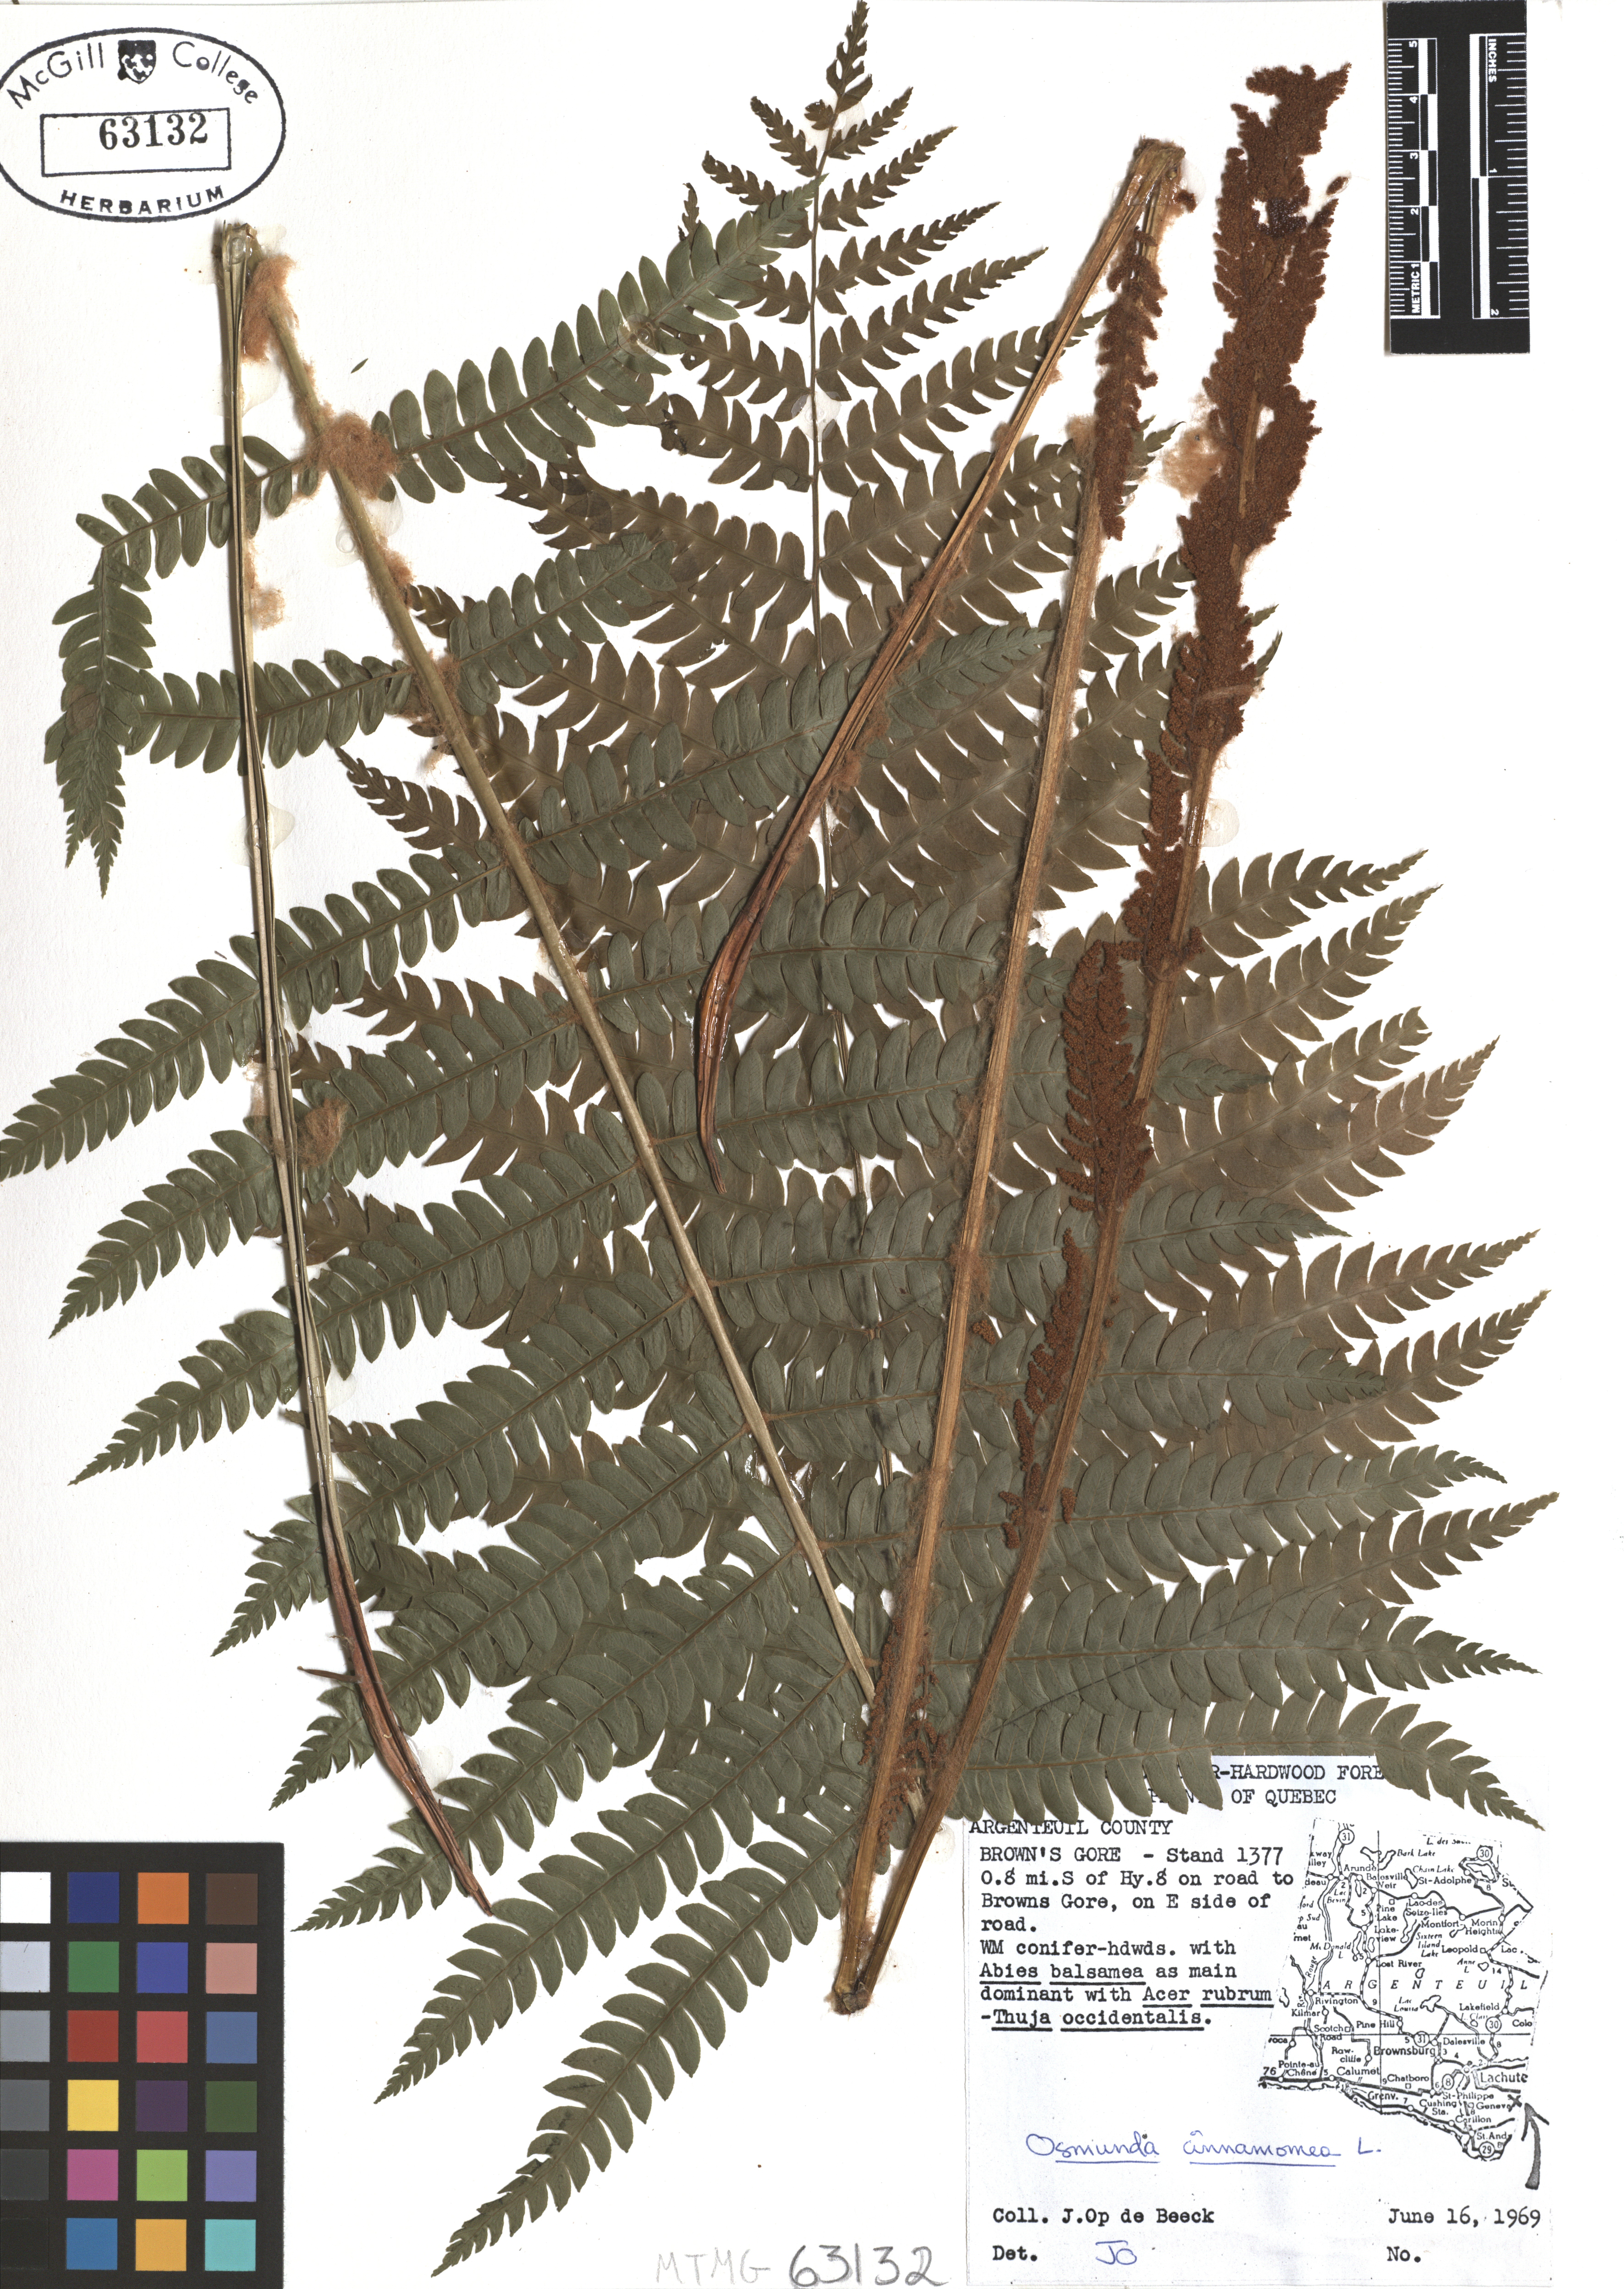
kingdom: Plantae
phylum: Tracheophyta
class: Polypodiopsida
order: Osmundales
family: Osmundaceae
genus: Osmundastrum
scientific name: Osmundastrum cinnamomeum
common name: Cinnamon fern
